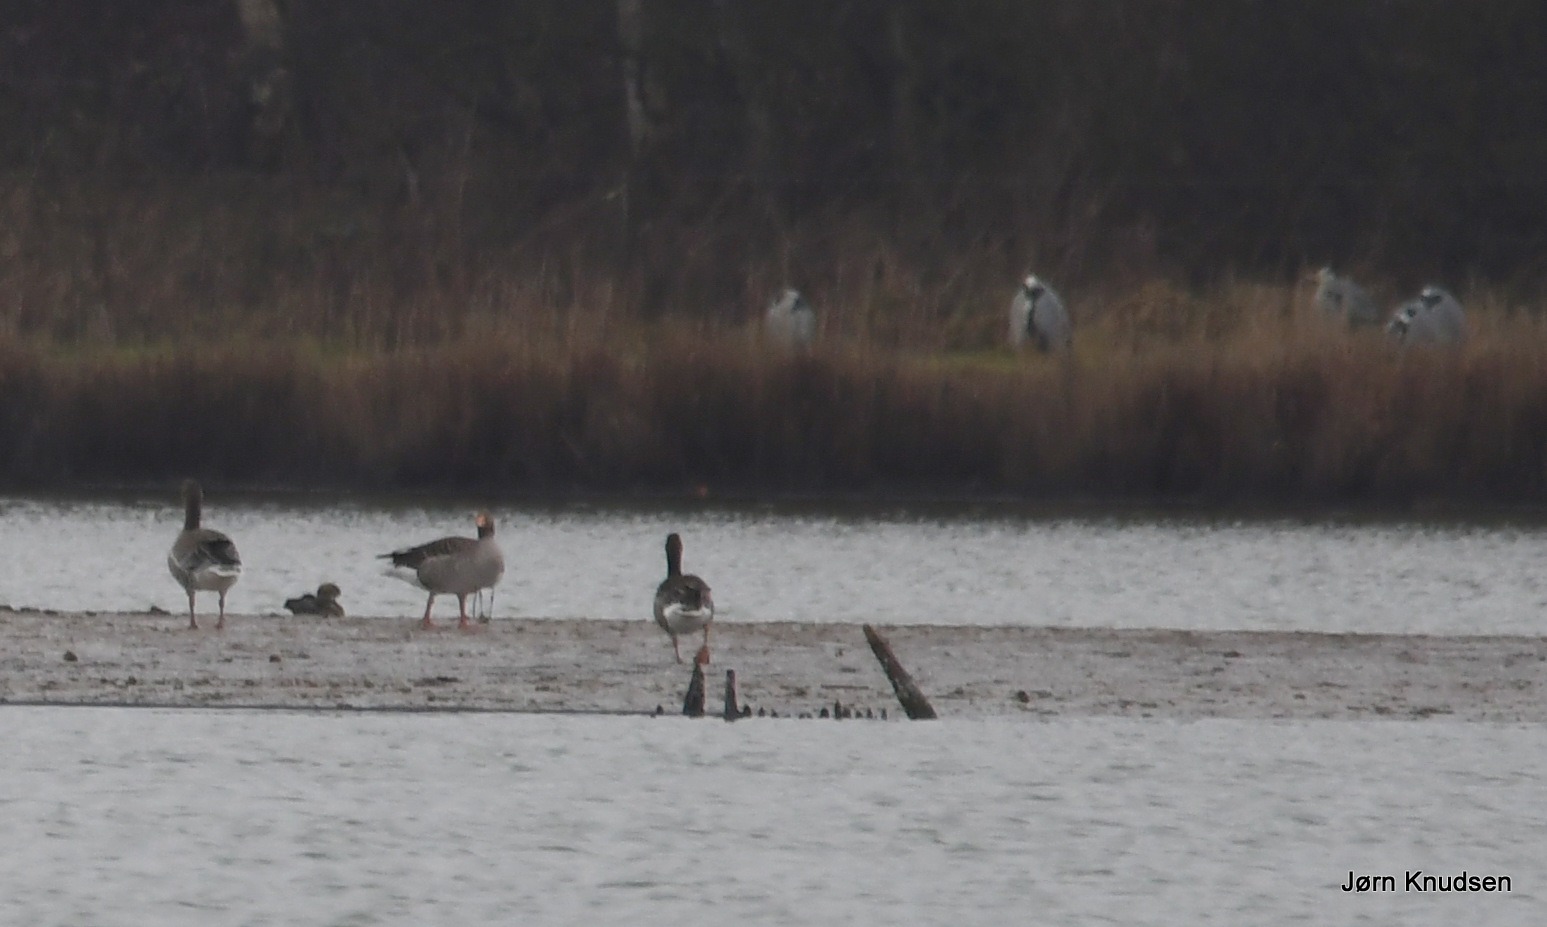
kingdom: Animalia
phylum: Chordata
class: Aves
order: Pelecaniformes
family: Ardeidae
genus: Ardea
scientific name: Ardea cinerea
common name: Fiskehejre
